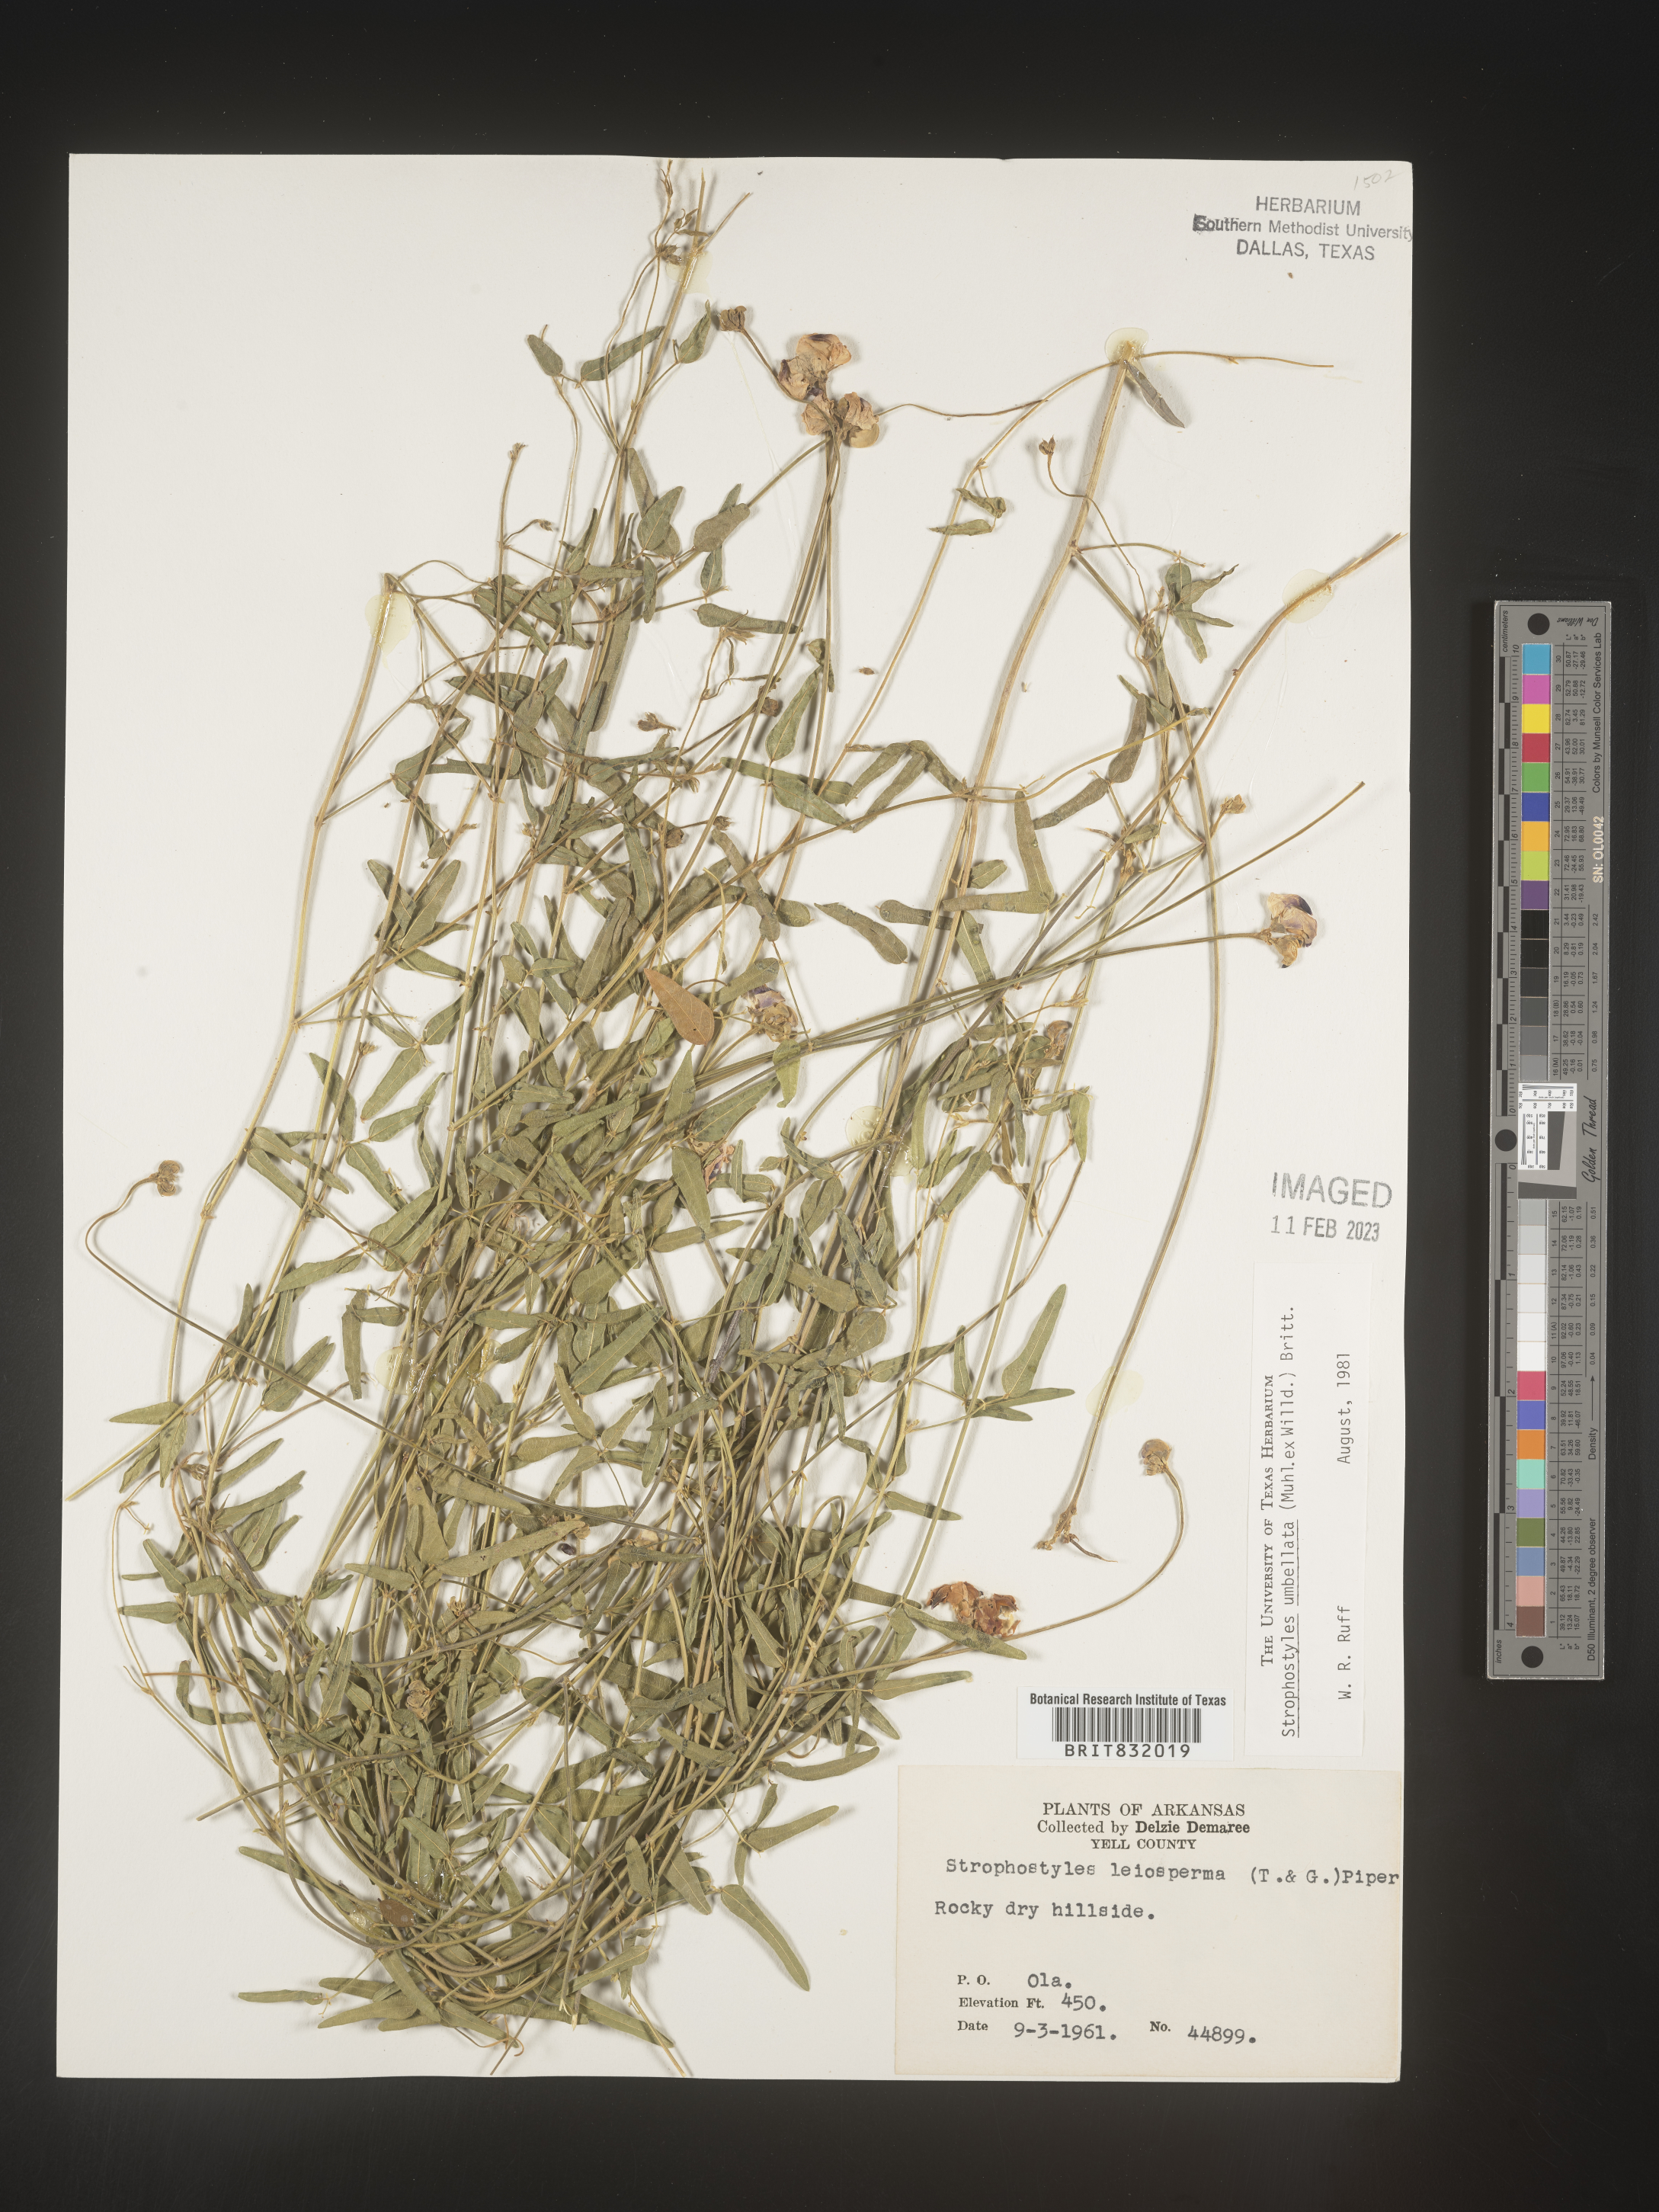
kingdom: Plantae
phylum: Tracheophyta
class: Magnoliopsida
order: Fabales
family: Fabaceae
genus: Strophostyles
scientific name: Strophostyles umbellata
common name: Perennial wild bean
